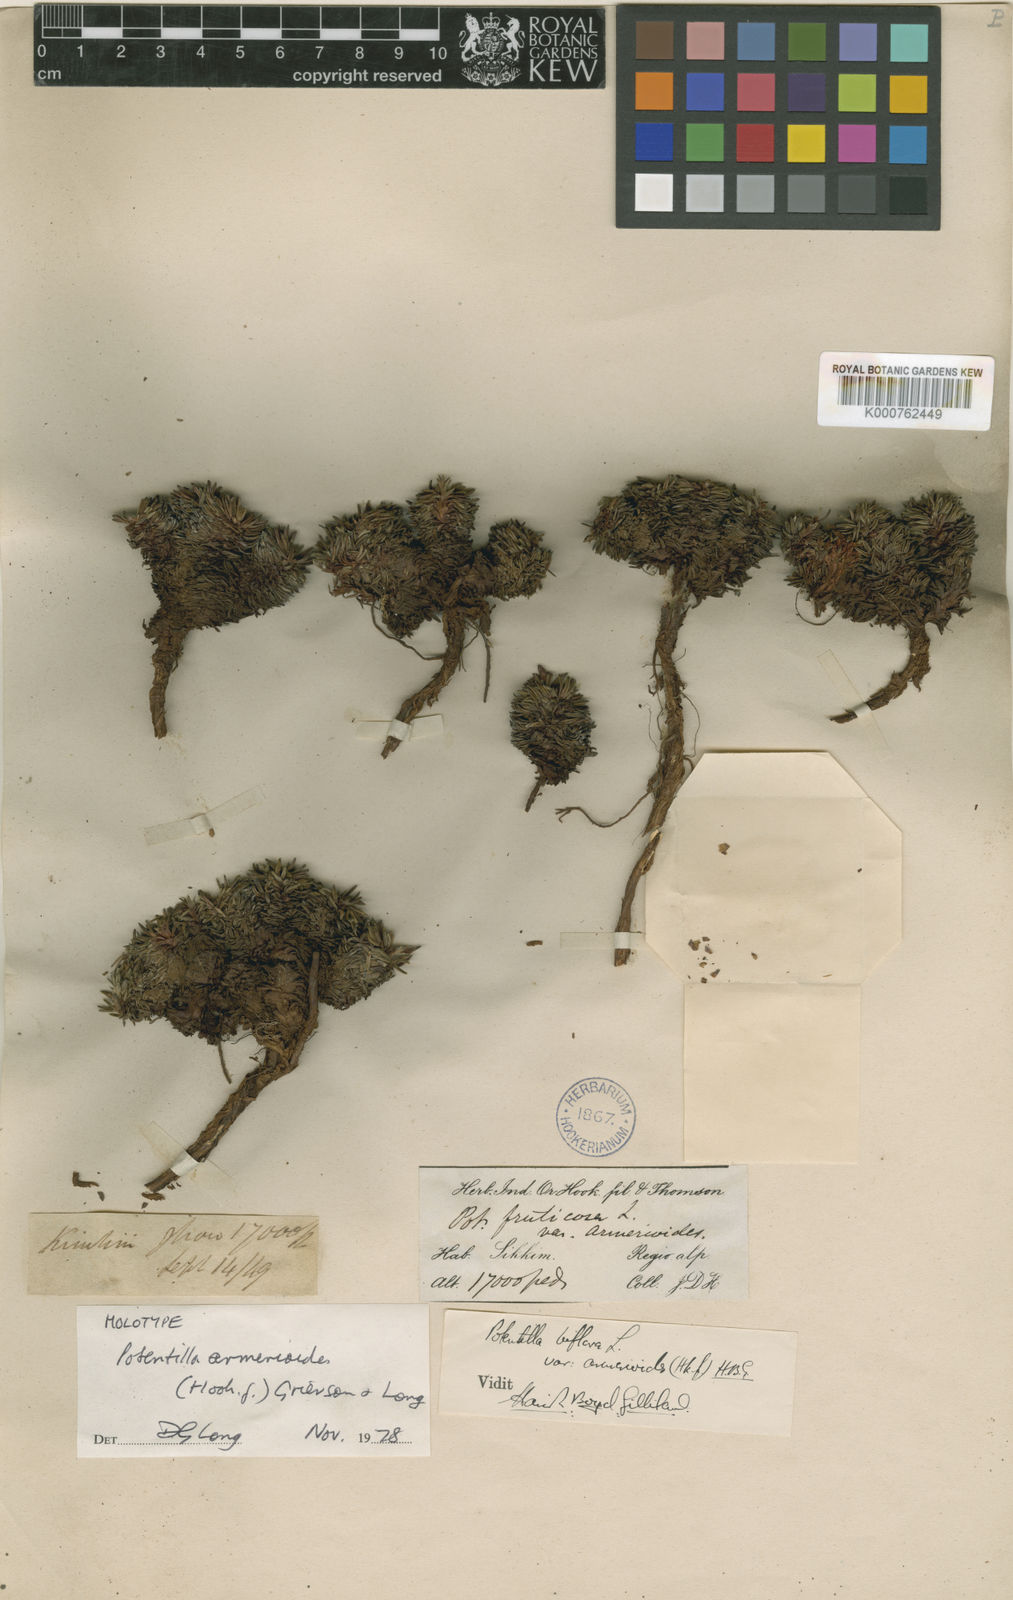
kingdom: Plantae
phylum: Tracheophyta
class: Magnoliopsida
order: Rosales
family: Rosaceae
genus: Dasiphora
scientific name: Dasiphora fruticosa
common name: Shrubby cinquefoil
